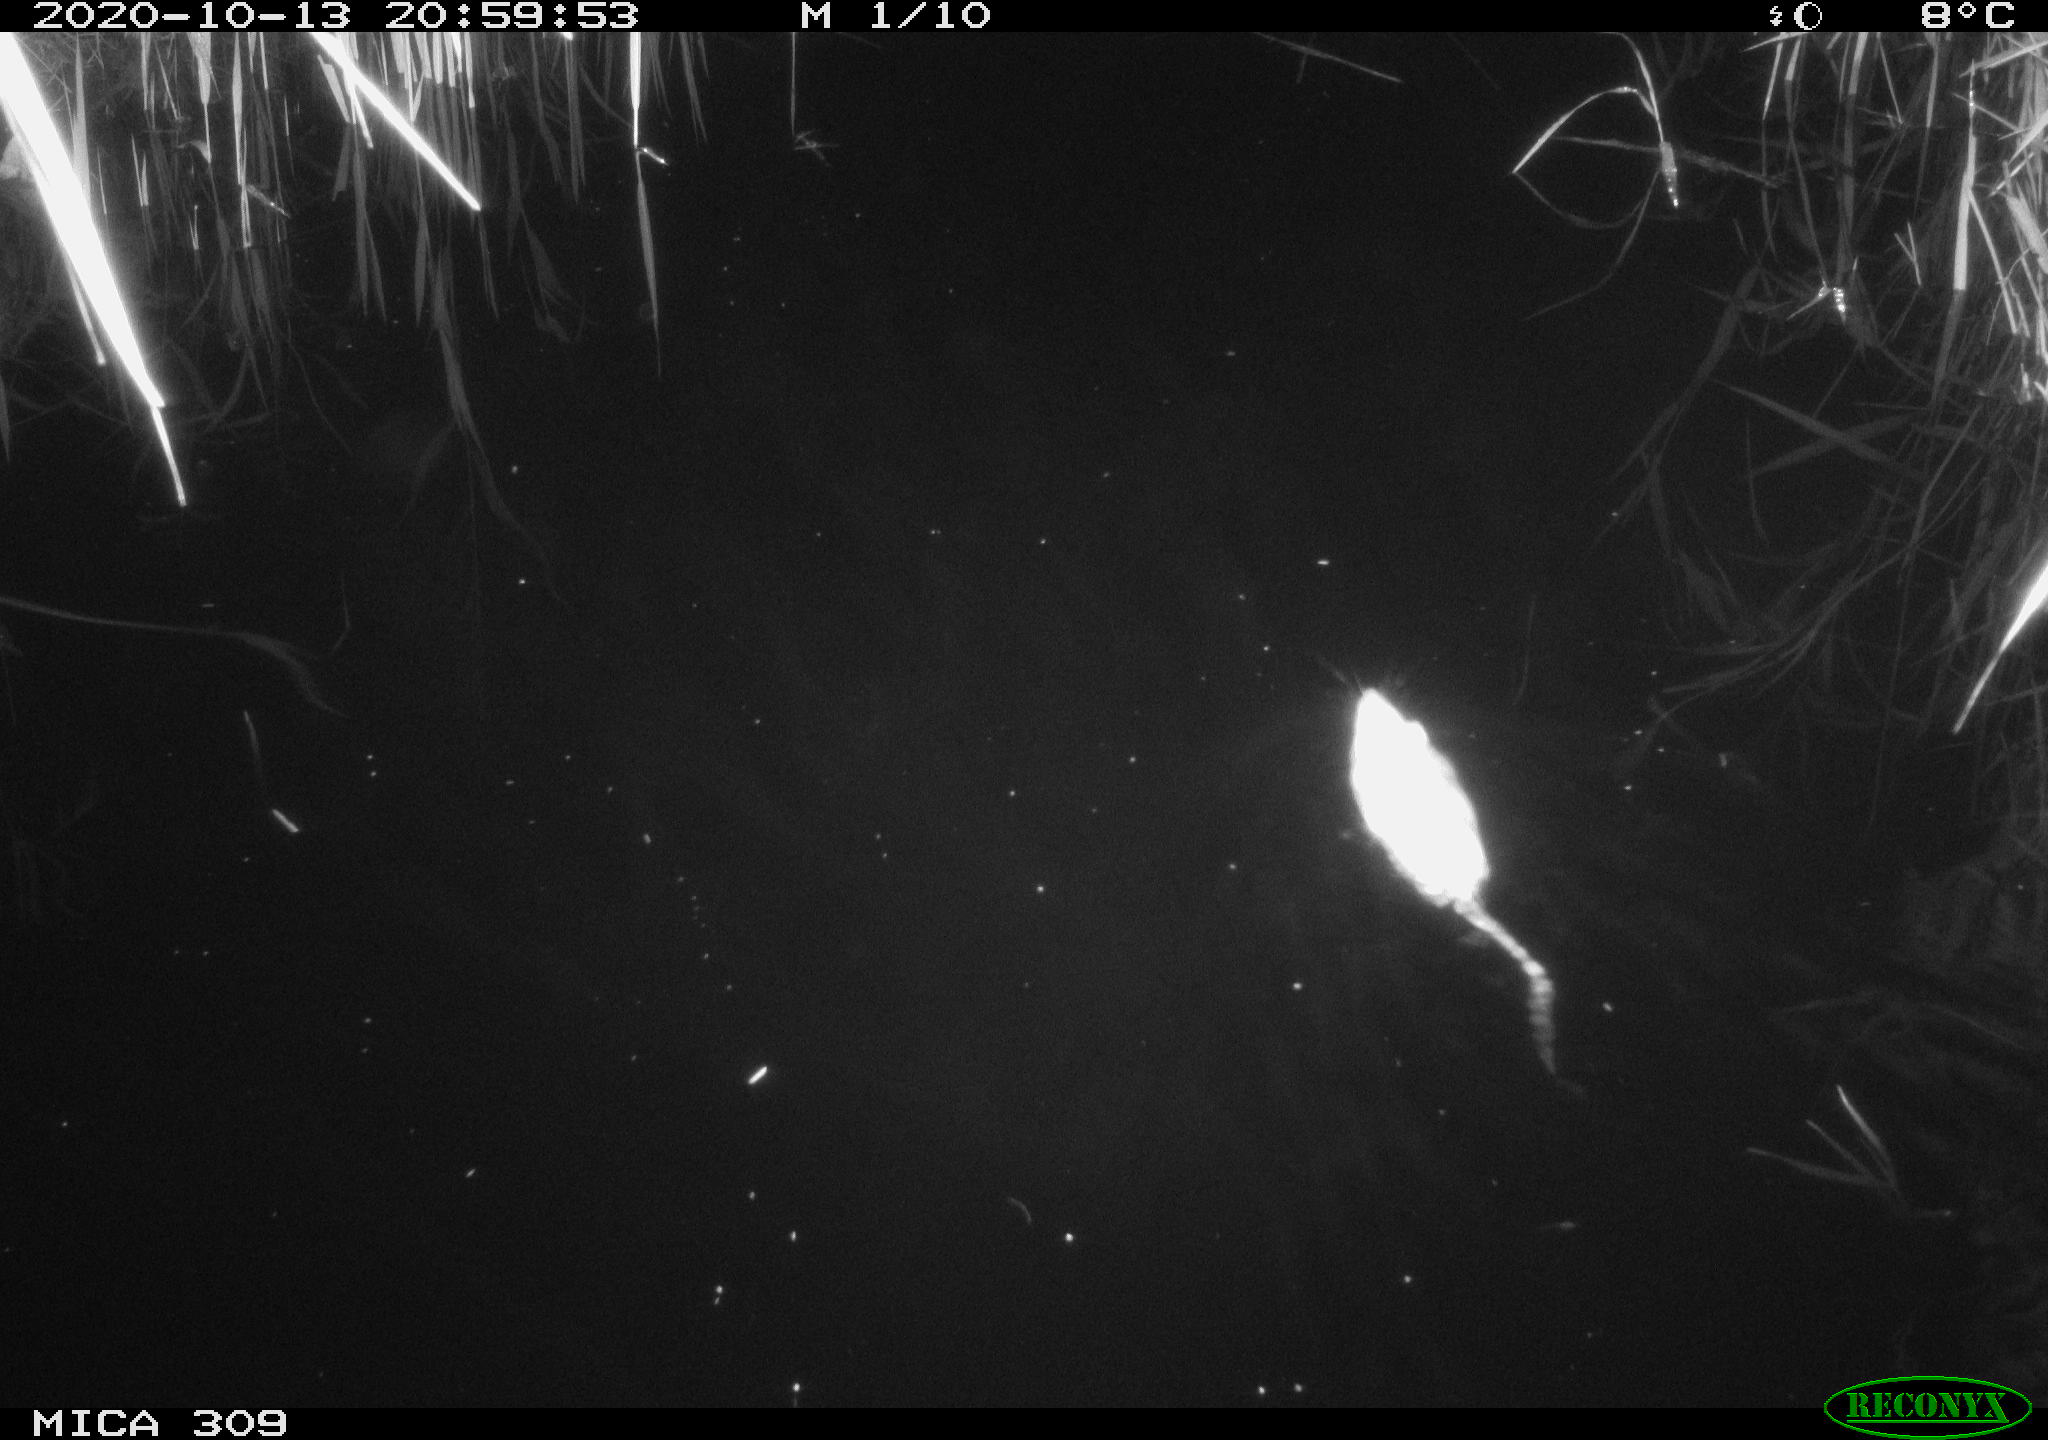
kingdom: Animalia
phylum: Chordata
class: Mammalia
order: Rodentia
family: Muridae
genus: Rattus
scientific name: Rattus norvegicus
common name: Brown rat
